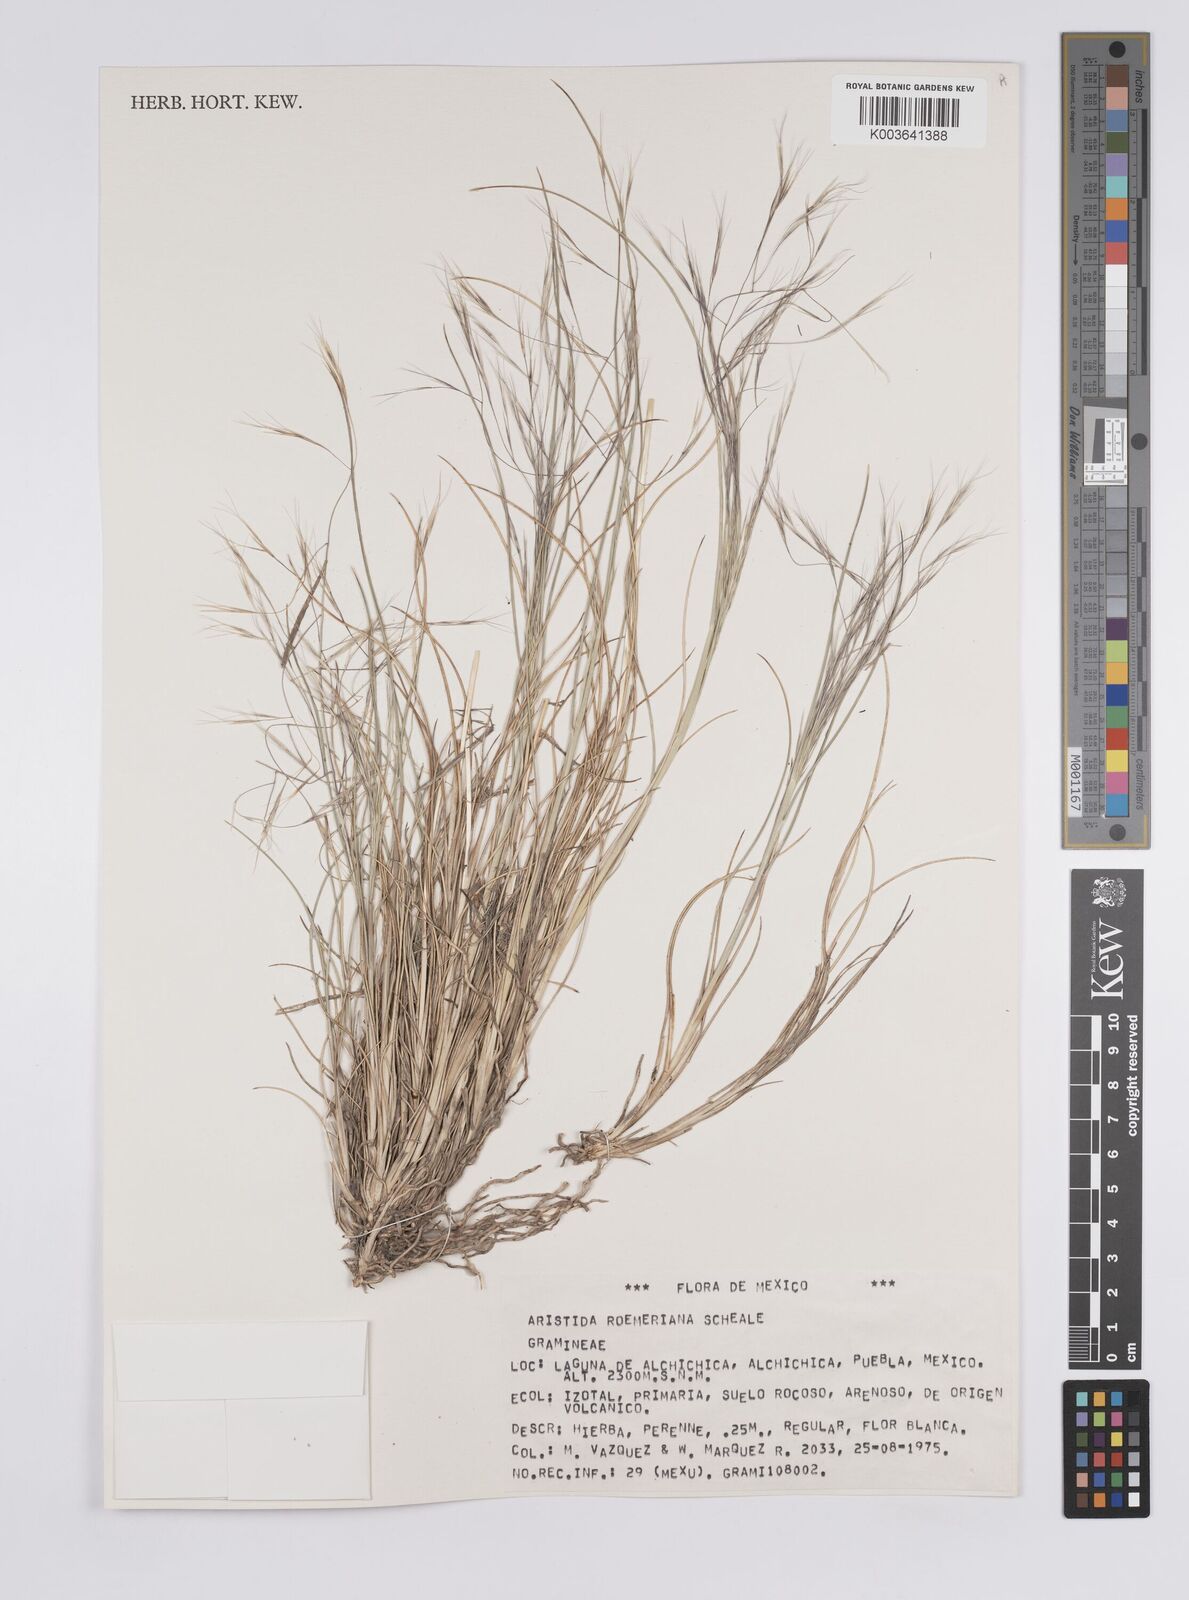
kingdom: Plantae
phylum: Tracheophyta
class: Liliopsida
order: Poales
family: Poaceae
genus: Aristida
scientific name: Aristida purpurea
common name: Purple threeawn
